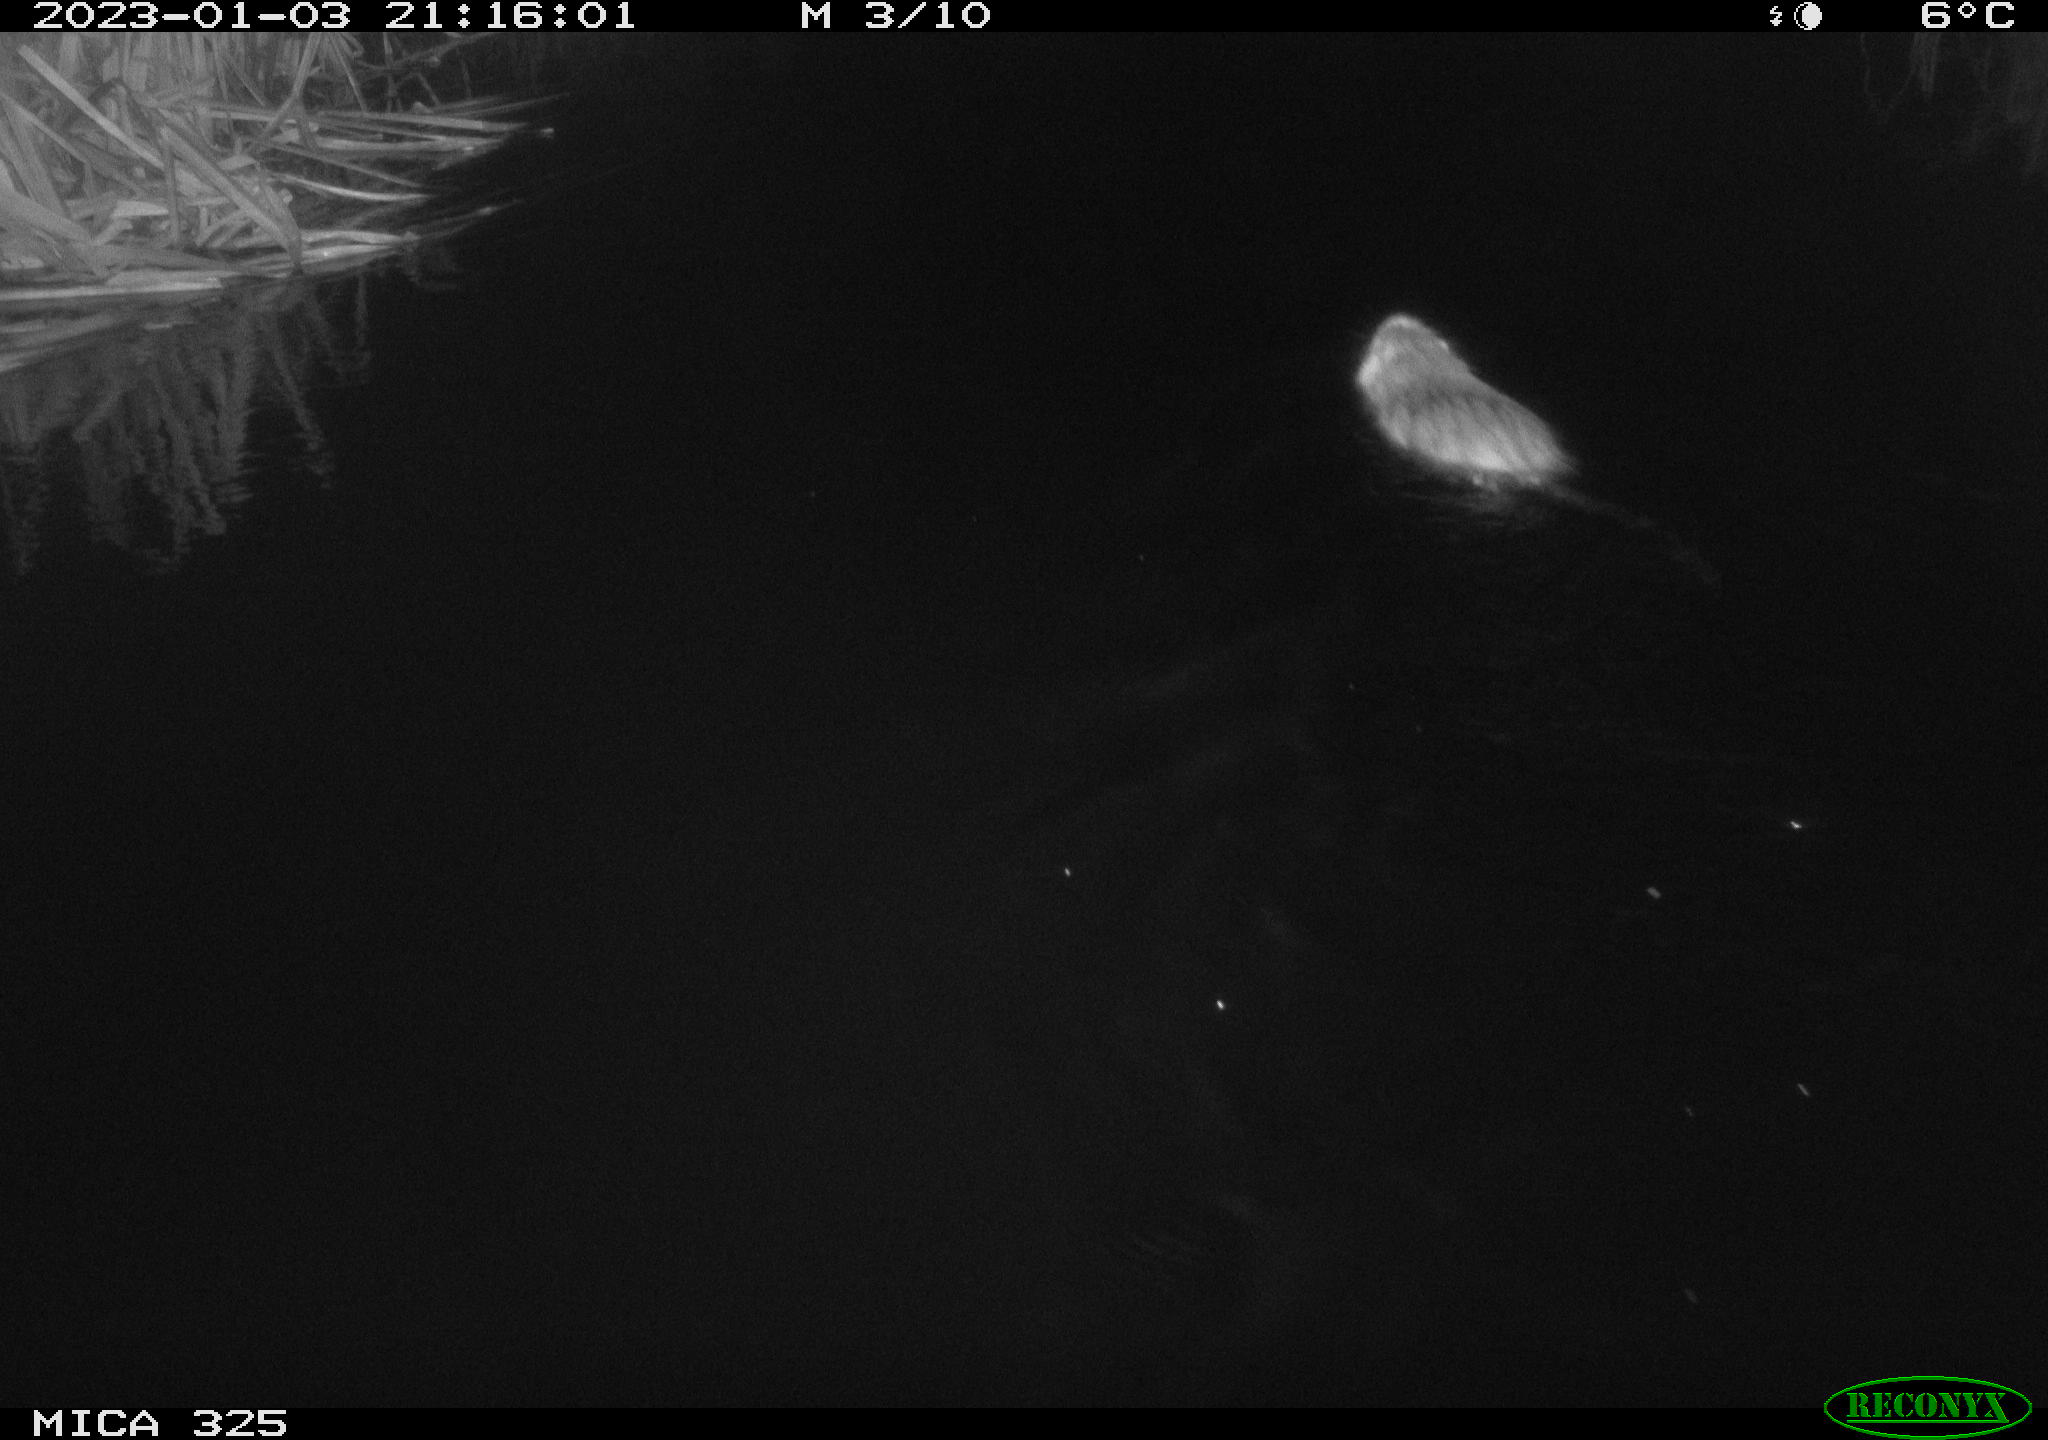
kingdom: Animalia
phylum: Chordata
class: Mammalia
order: Rodentia
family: Myocastoridae
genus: Myocastor
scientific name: Myocastor coypus
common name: Coypu
